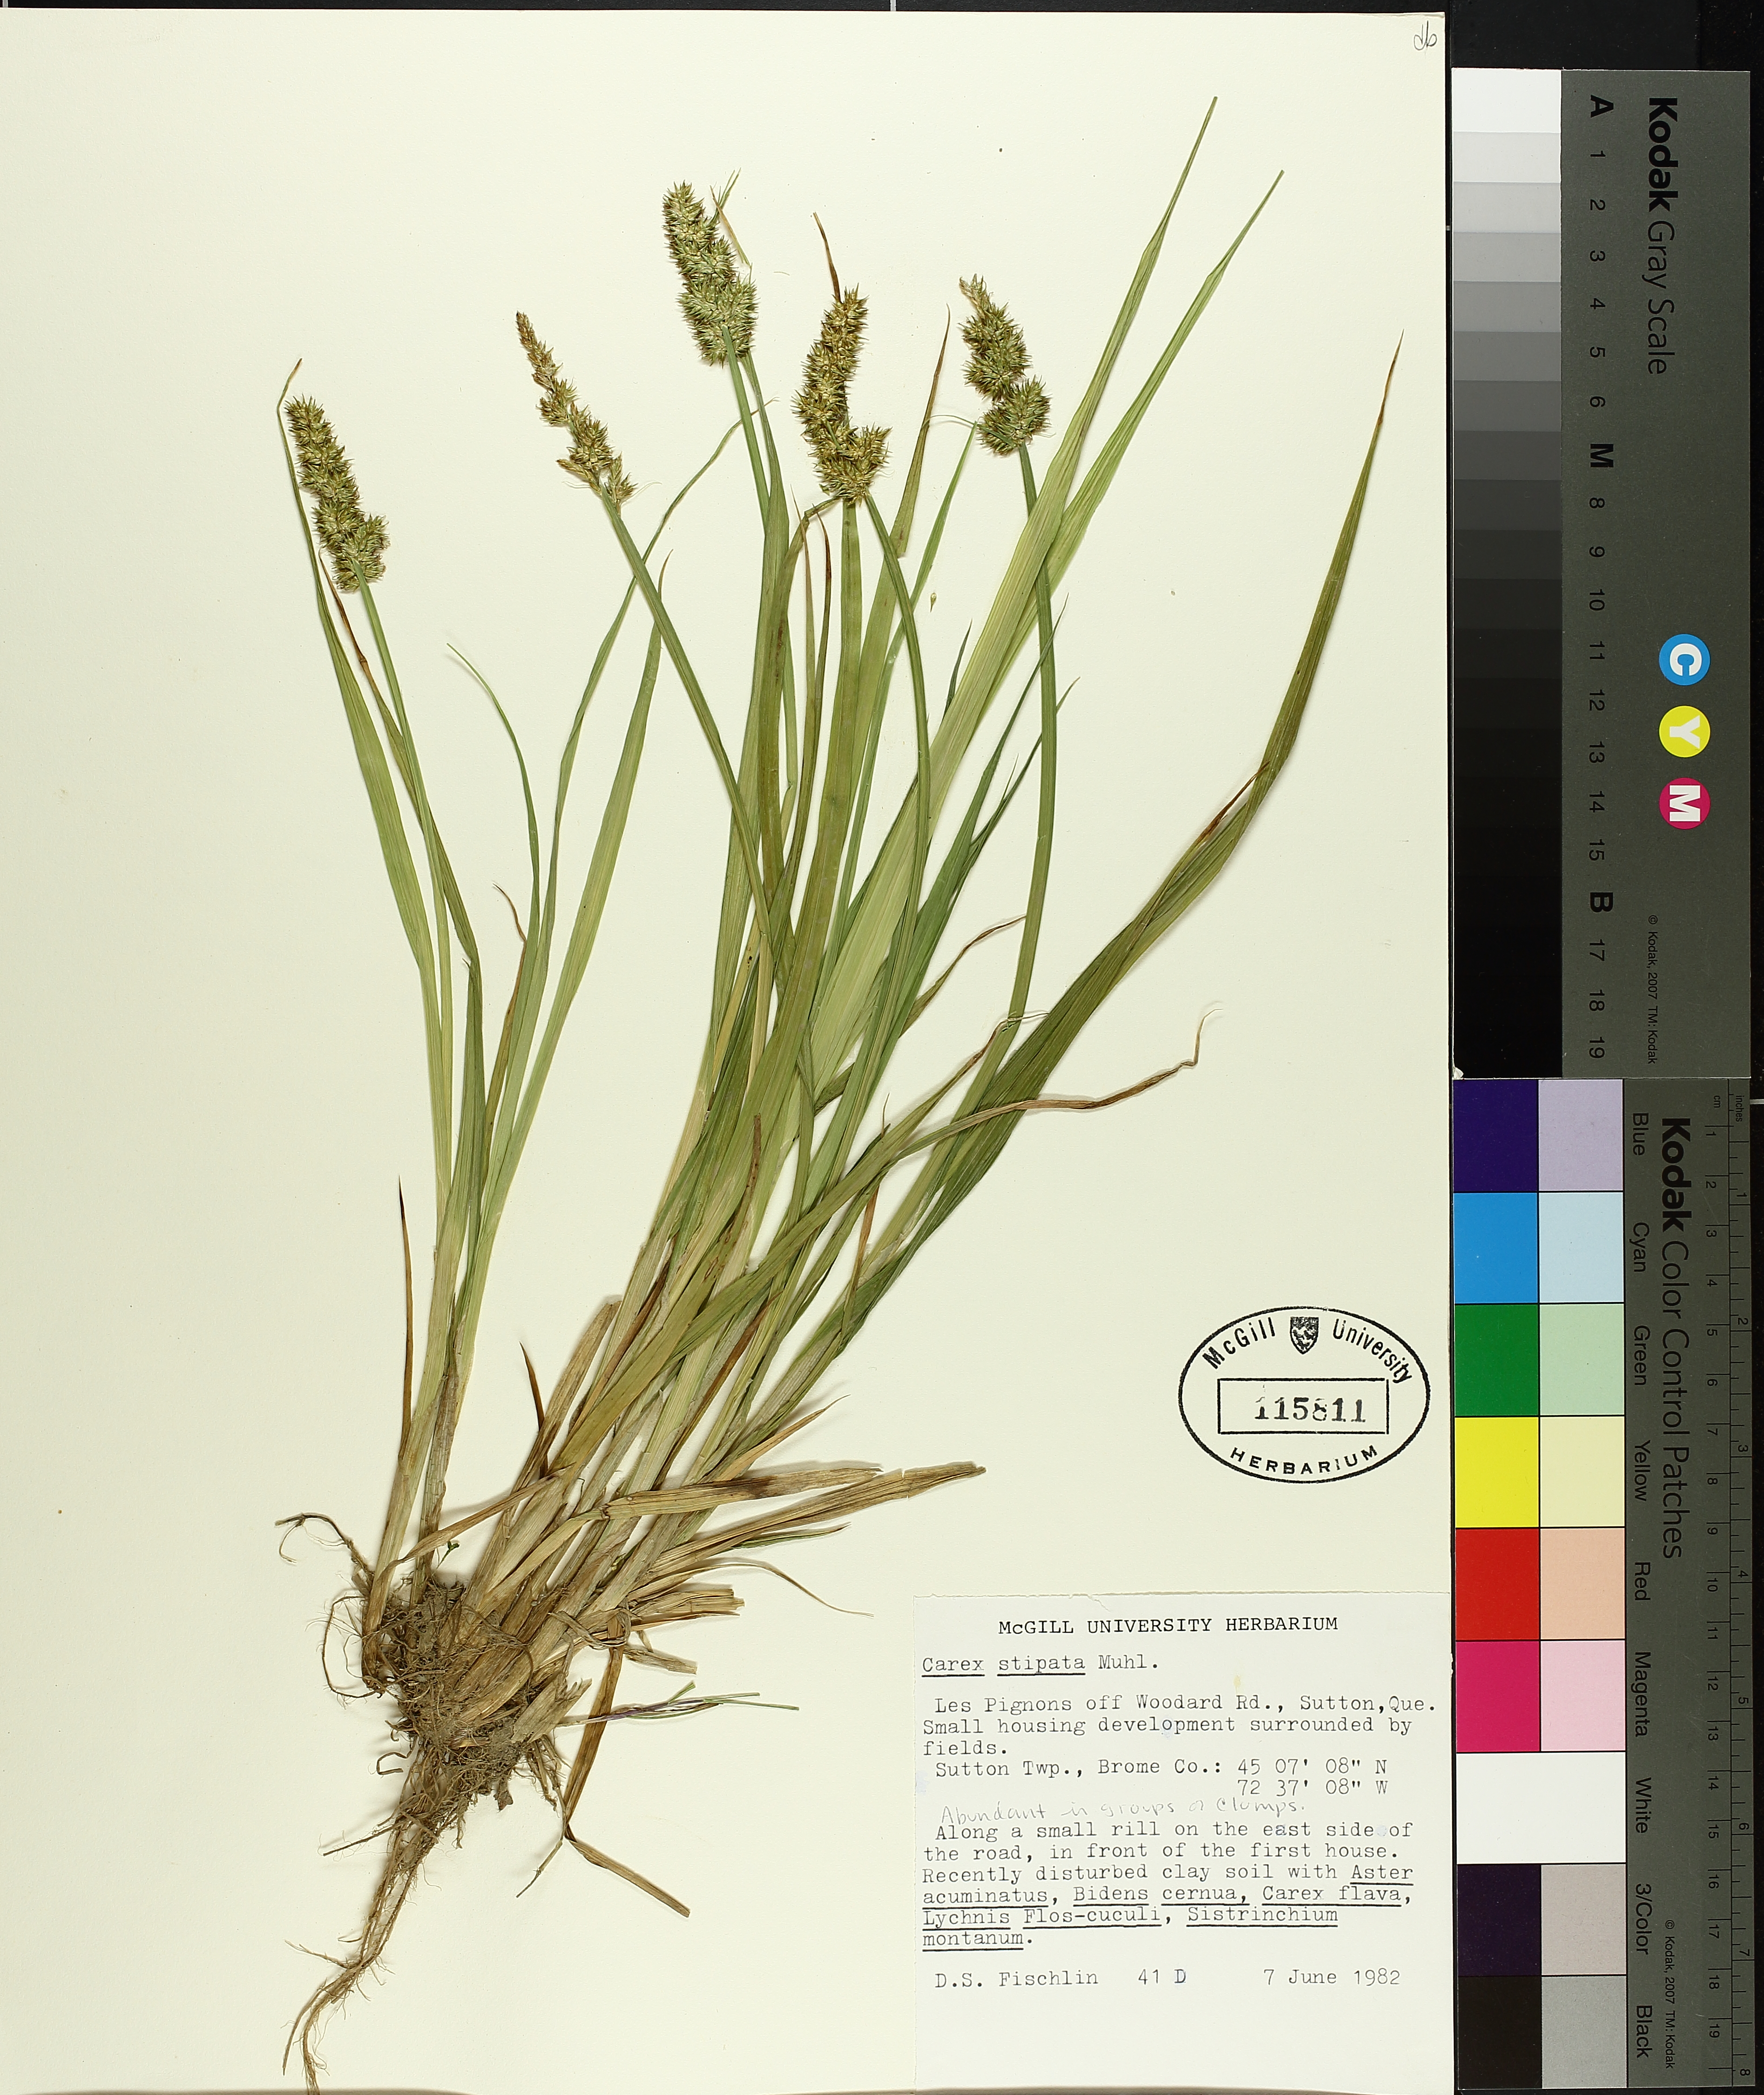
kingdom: Plantae
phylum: Tracheophyta
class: Liliopsida
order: Poales
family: Cyperaceae
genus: Carex
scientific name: Carex stipata
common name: Awl-fruited sedge
